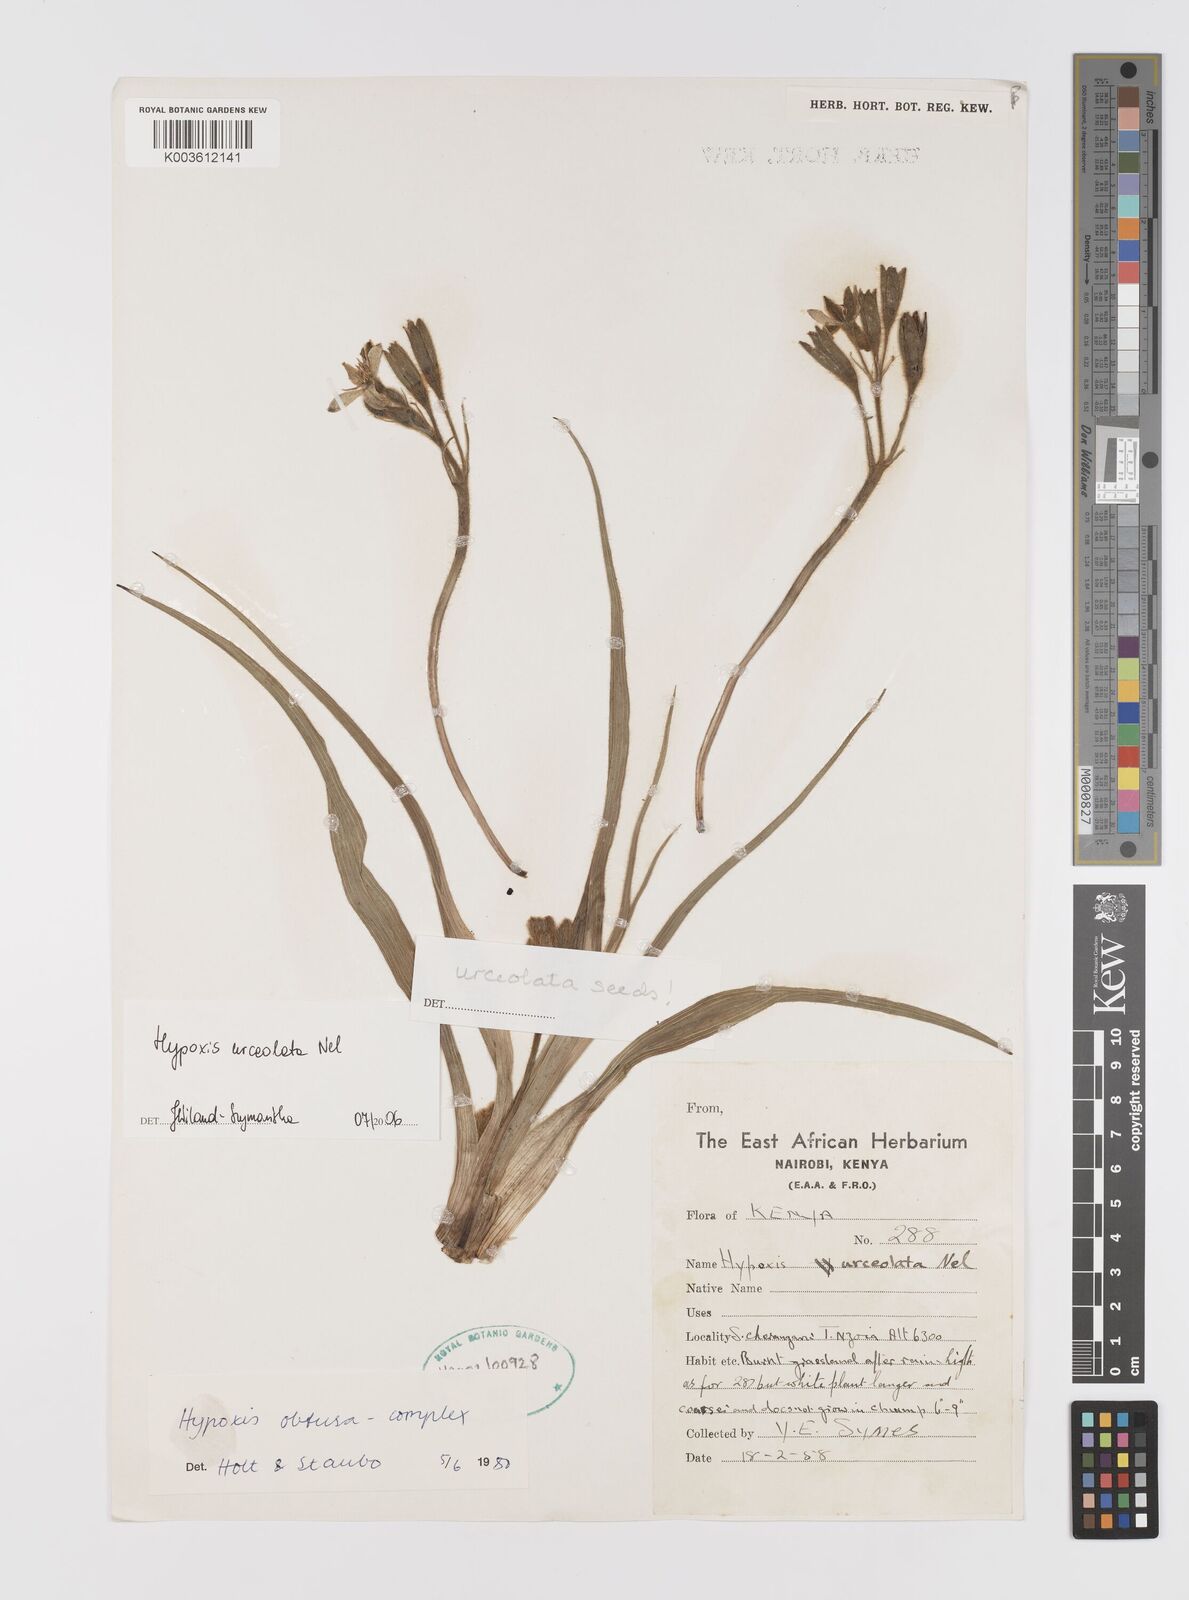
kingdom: Plantae
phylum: Tracheophyta
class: Liliopsida
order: Asparagales
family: Hypoxidaceae
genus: Hypoxis
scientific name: Hypoxis urceolata
